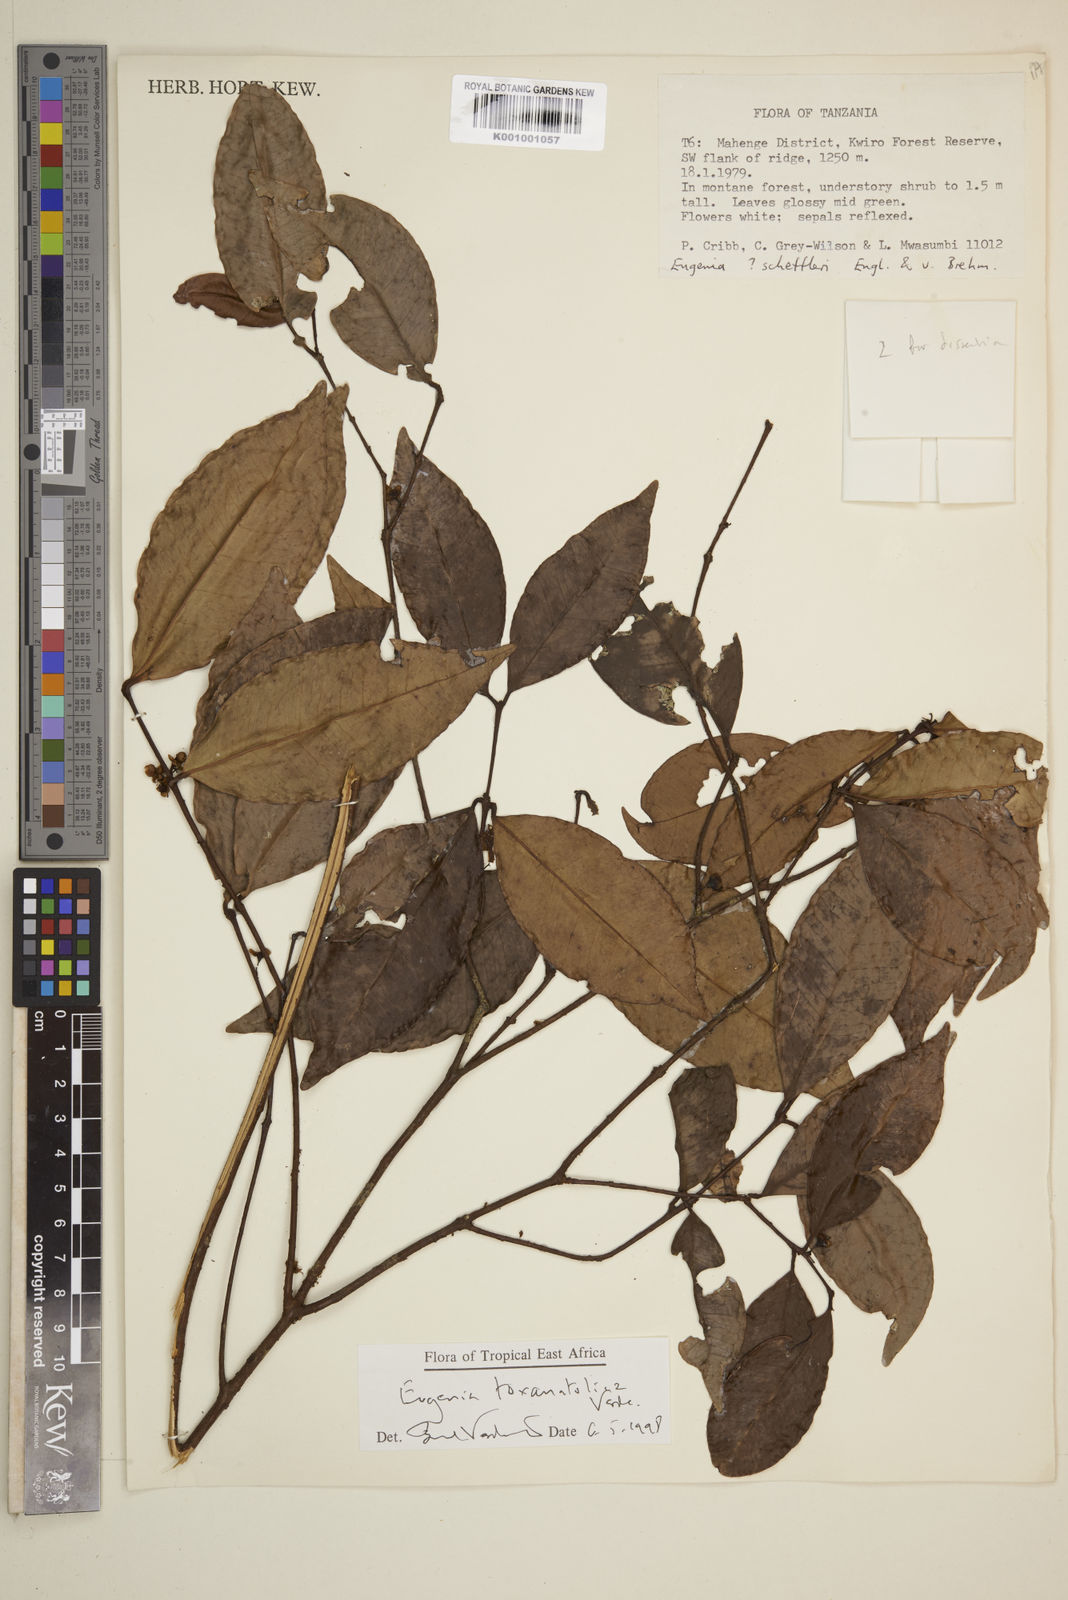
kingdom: Plantae
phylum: Tracheophyta
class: Magnoliopsida
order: Myrtales
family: Myrtaceae
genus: Eugenia
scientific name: Eugenia toxanatolica
